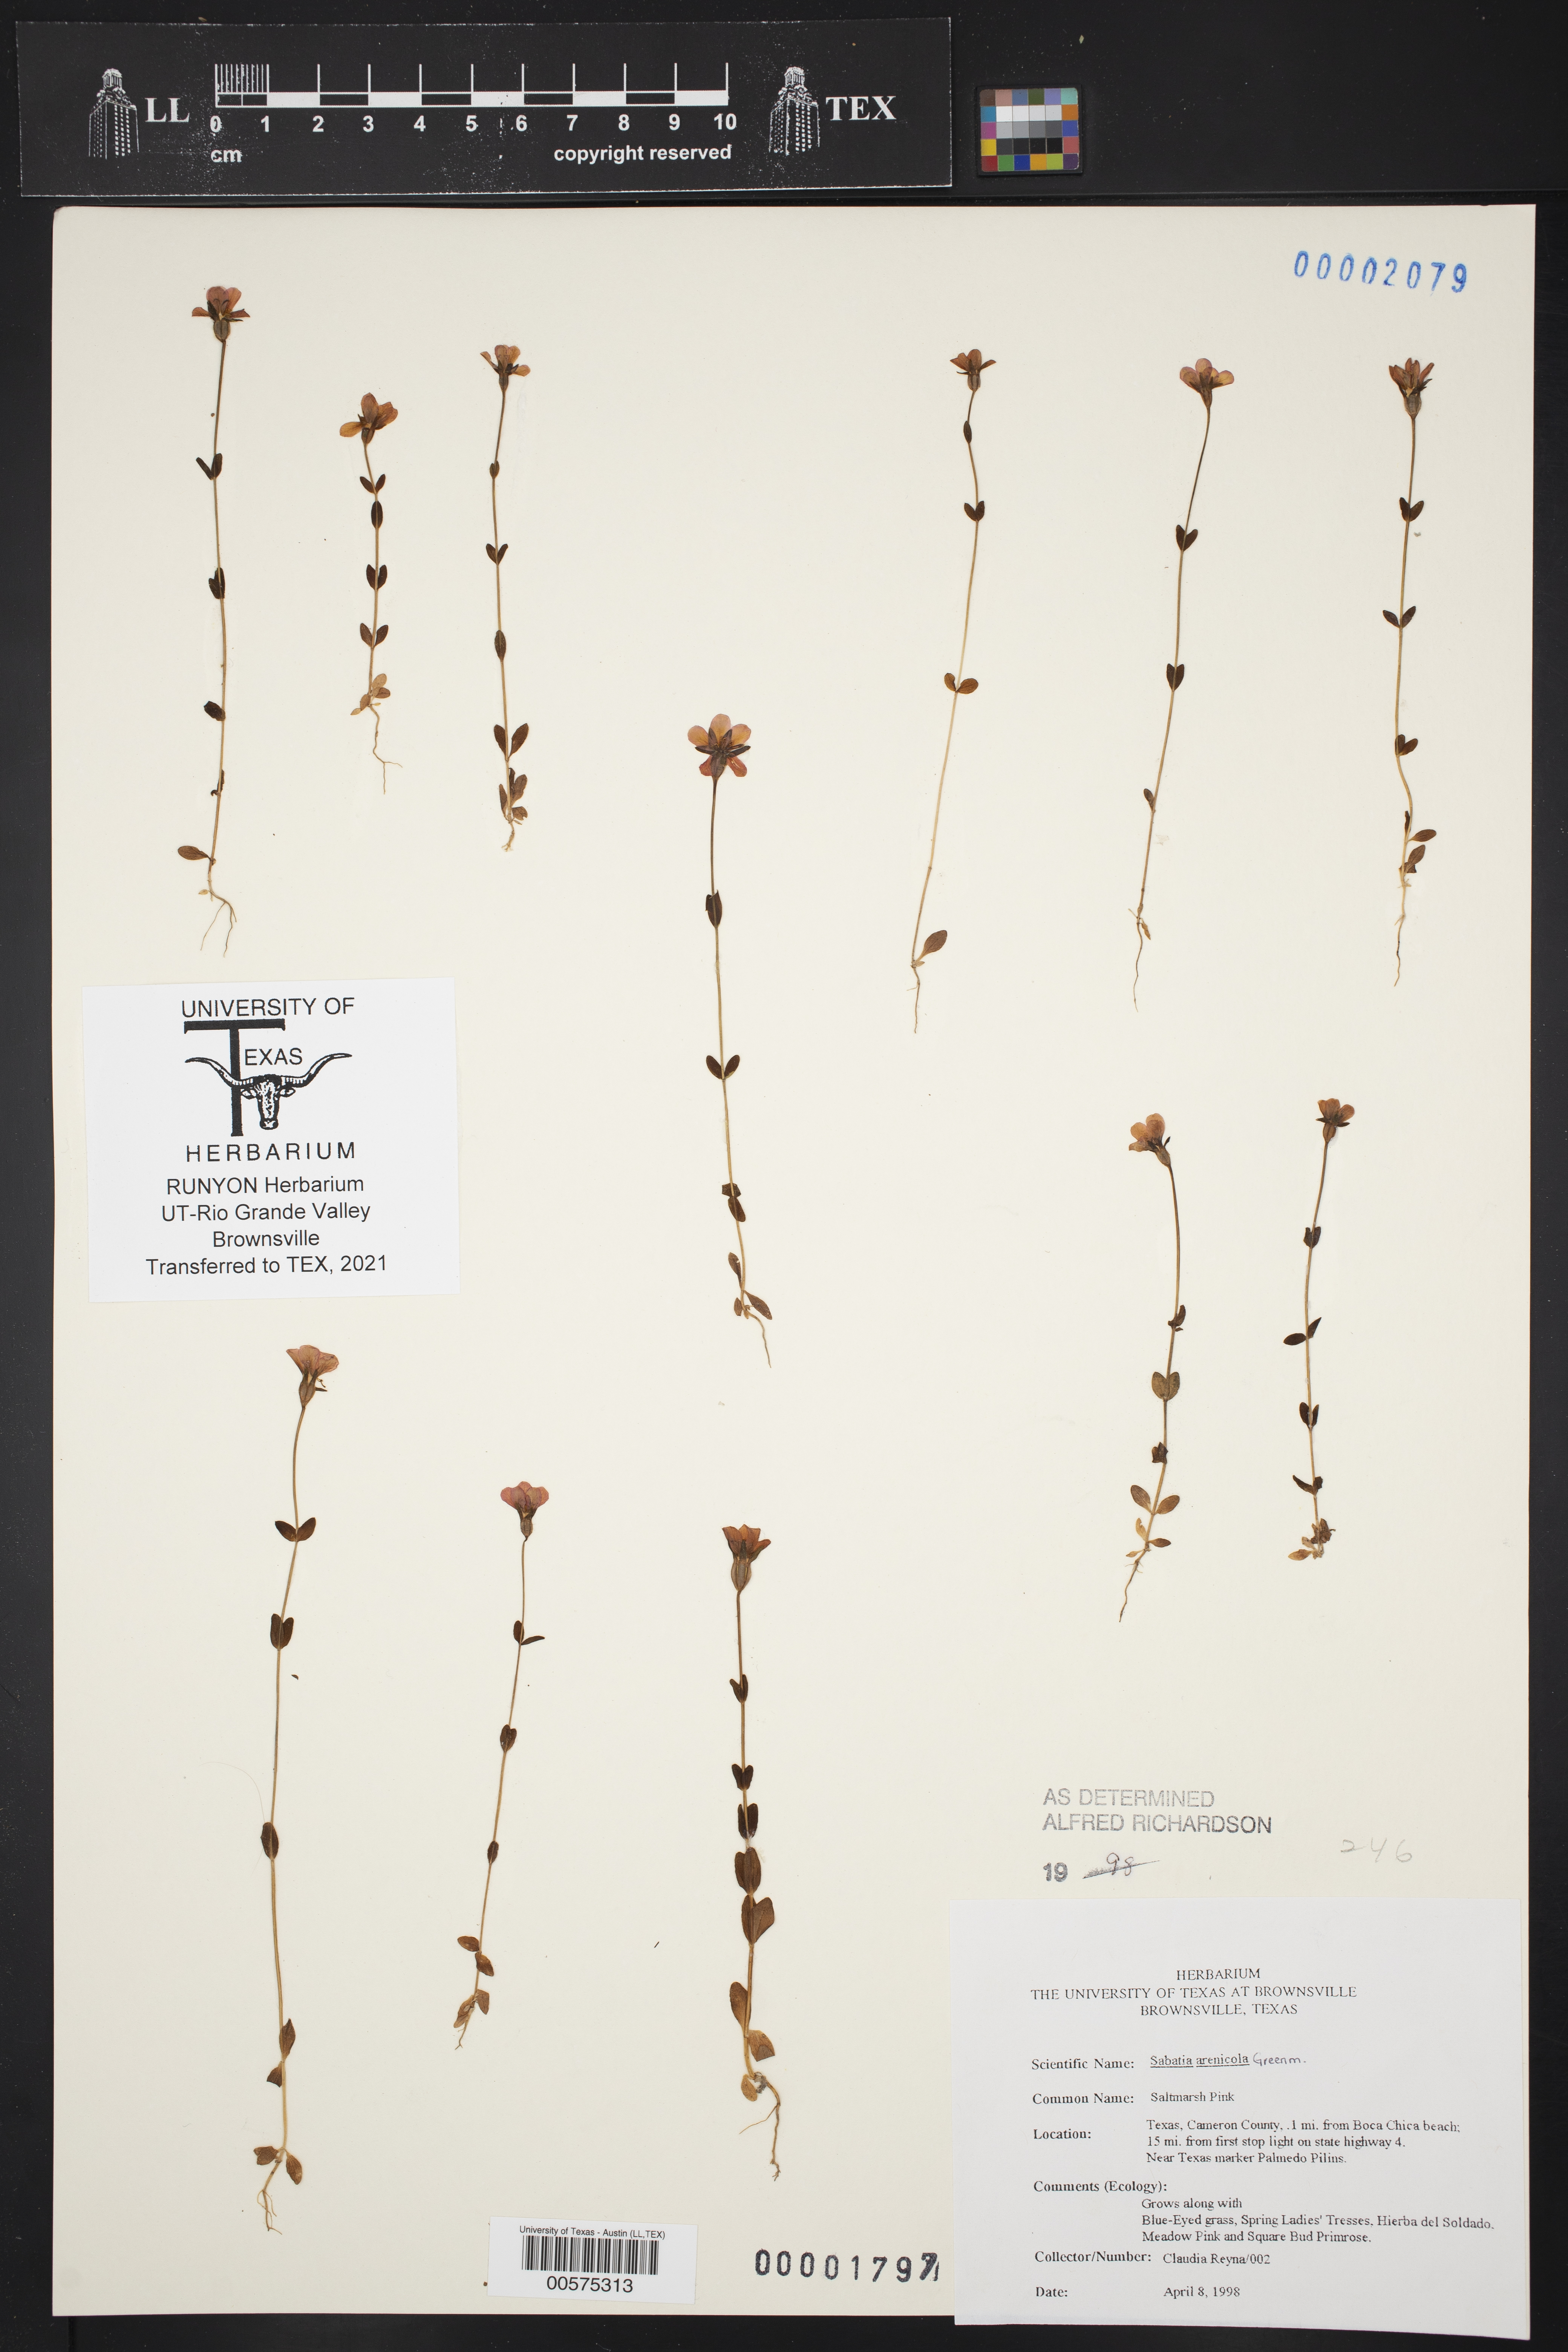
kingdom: Plantae
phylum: Tracheophyta
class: Magnoliopsida
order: Gentianales
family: Gentianaceae
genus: Sabatia
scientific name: Sabatia arenicola
